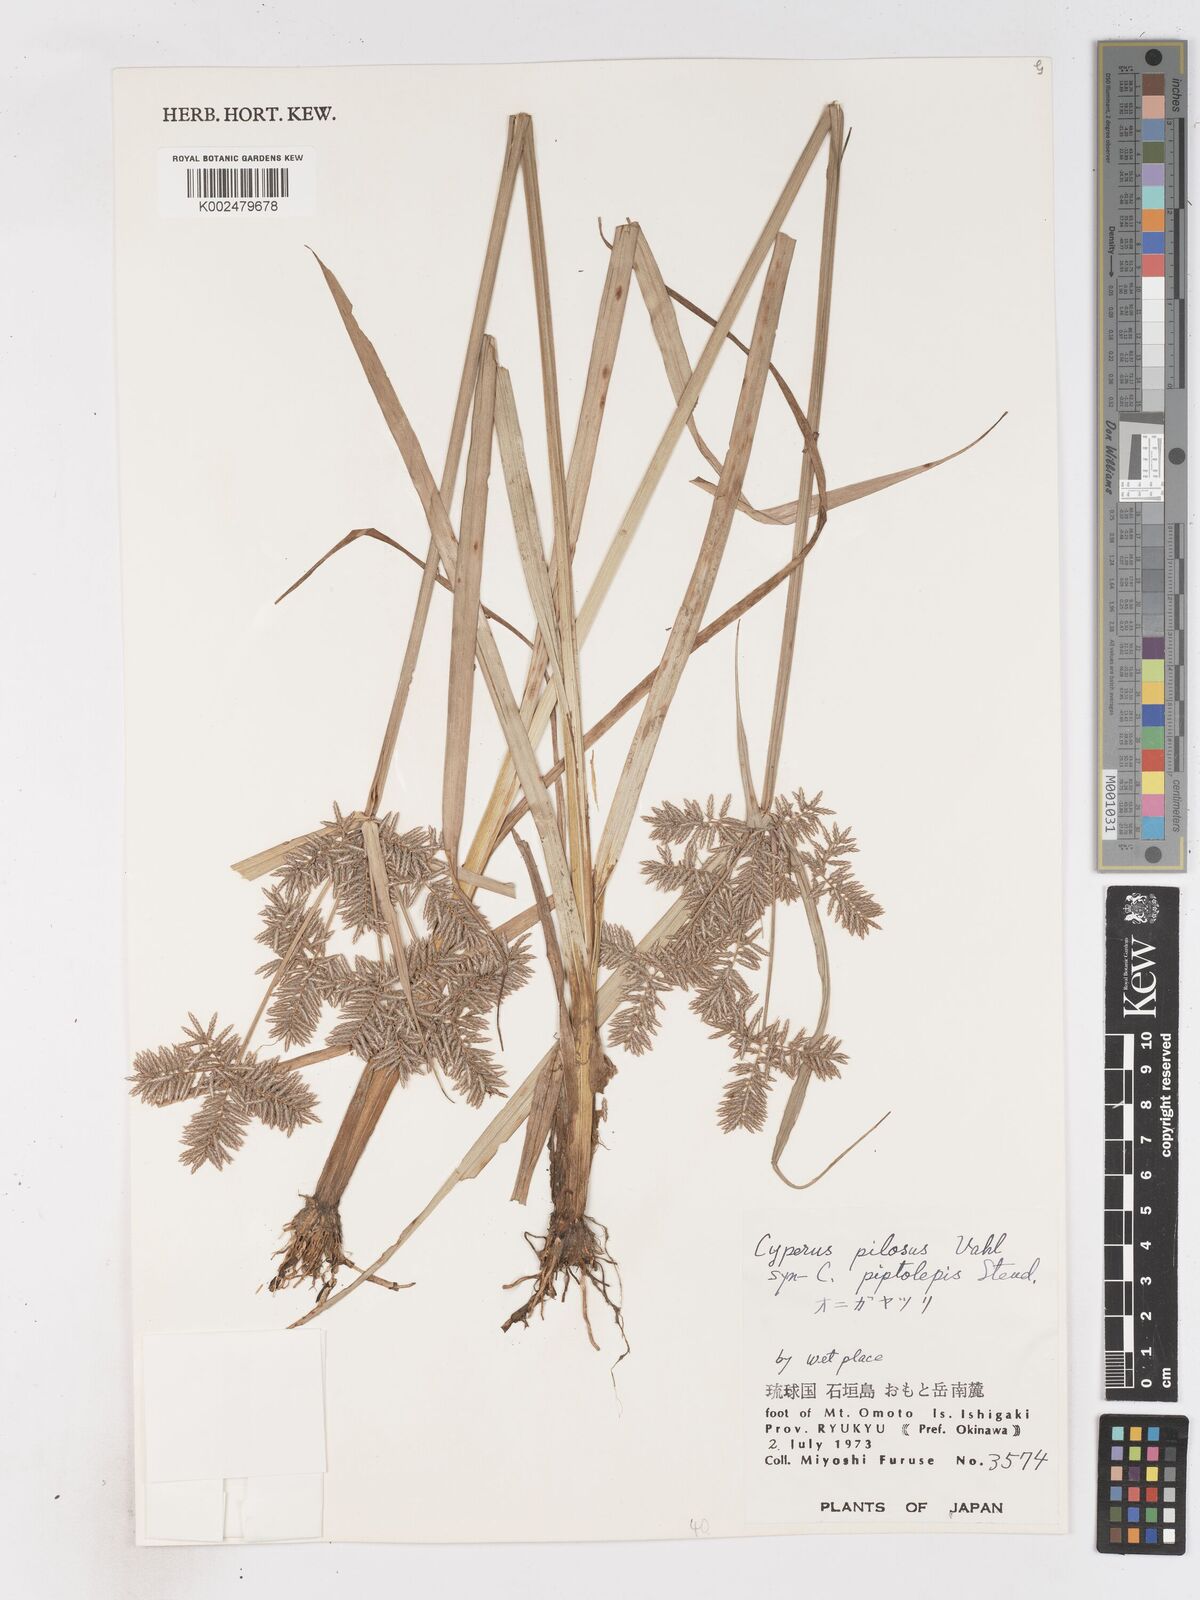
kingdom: Plantae
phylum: Tracheophyta
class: Liliopsida
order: Poales
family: Cyperaceae
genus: Cyperus
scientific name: Cyperus pilosus
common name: Fuzzy flatsedge
